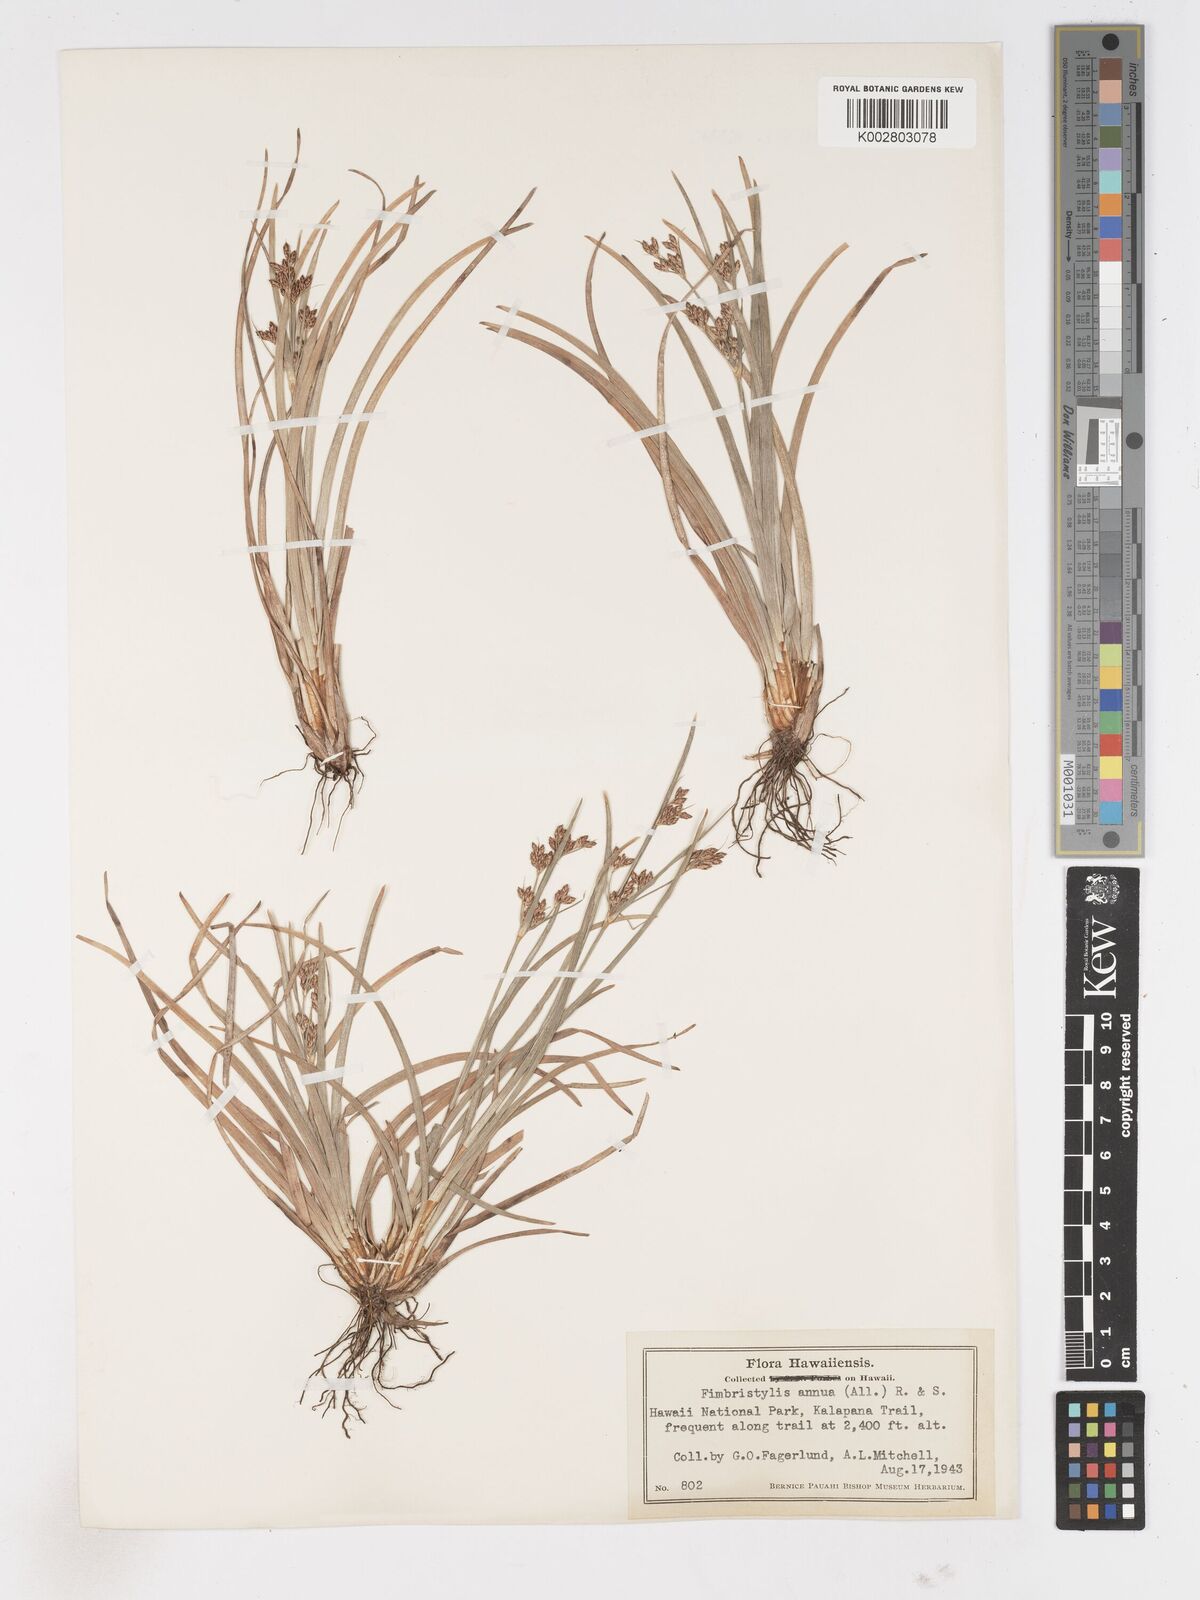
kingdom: Plantae
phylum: Tracheophyta
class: Liliopsida
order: Poales
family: Cyperaceae
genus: Fimbristylis
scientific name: Fimbristylis dichotoma
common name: Forked fimbry
